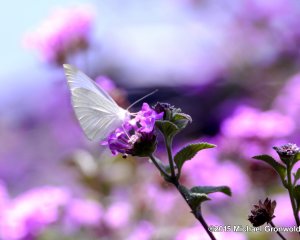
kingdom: Animalia
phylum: Arthropoda
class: Insecta
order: Lepidoptera
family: Pieridae
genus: Pieris
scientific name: Pieris rapae
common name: Cabbage White
